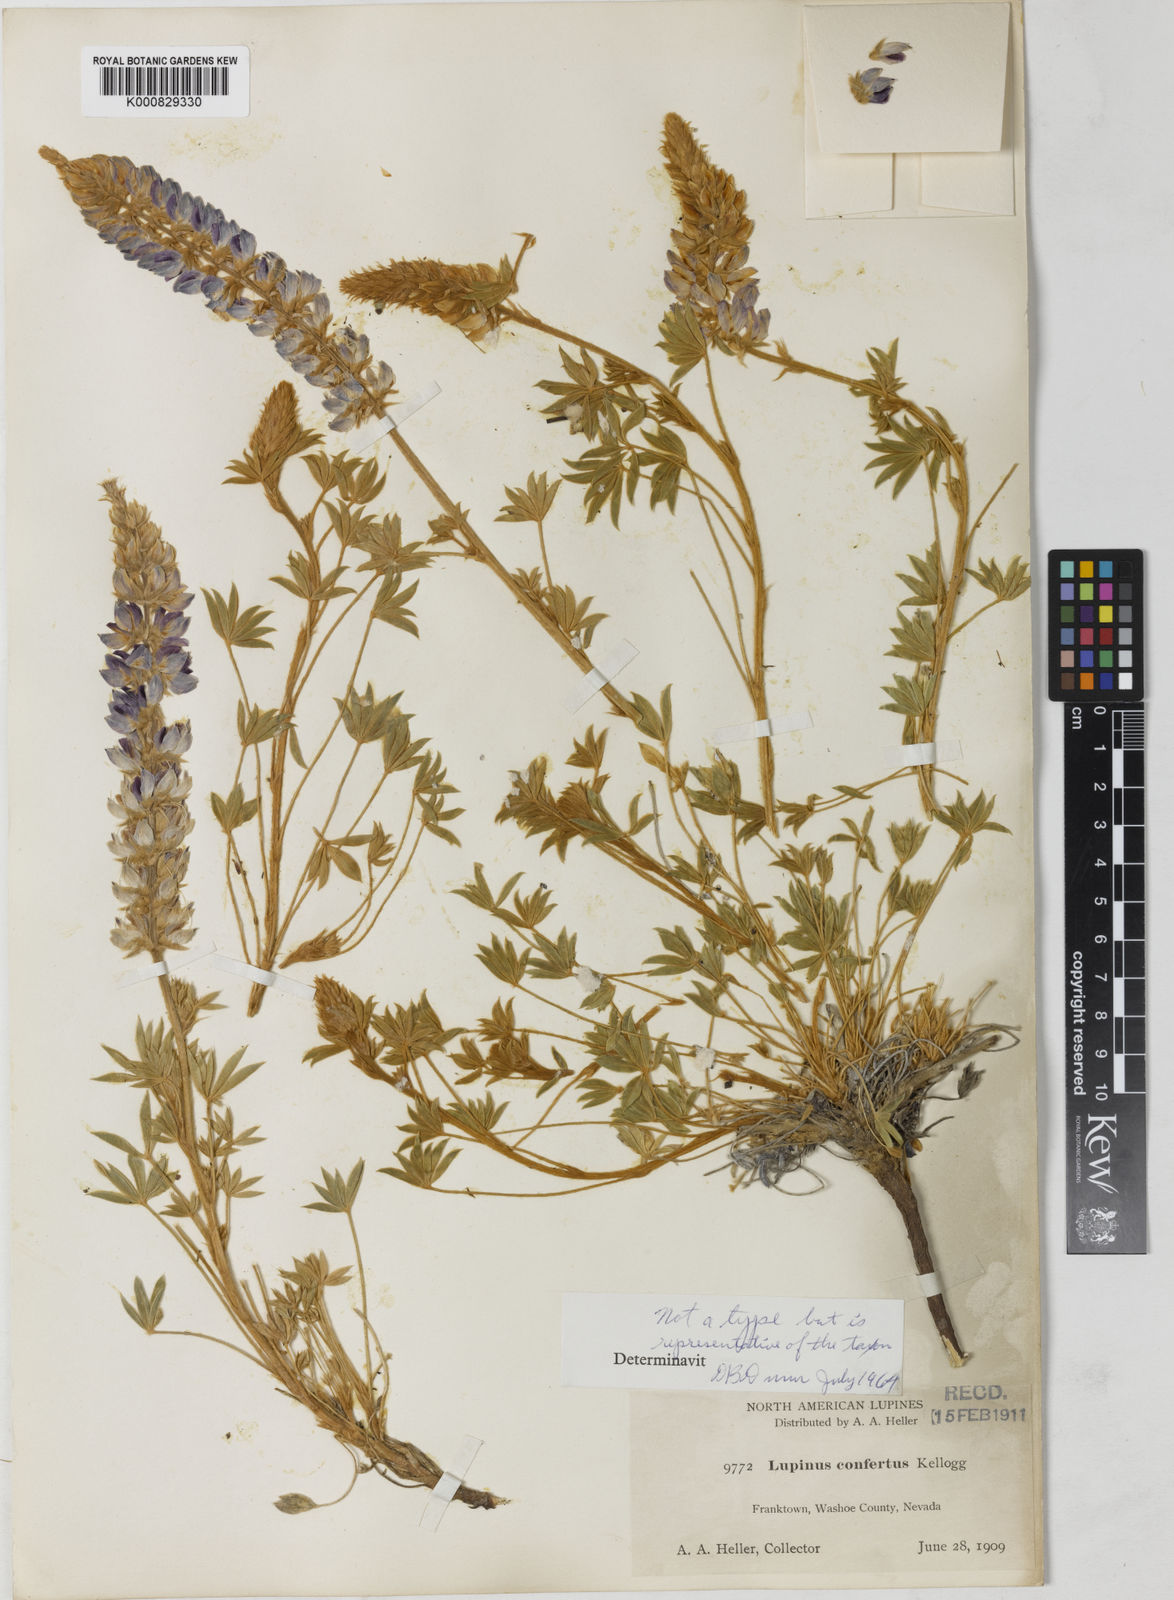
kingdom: Plantae
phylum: Tracheophyta
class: Magnoliopsida
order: Fabales
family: Fabaceae
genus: Lupinus
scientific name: Lupinus confertus
